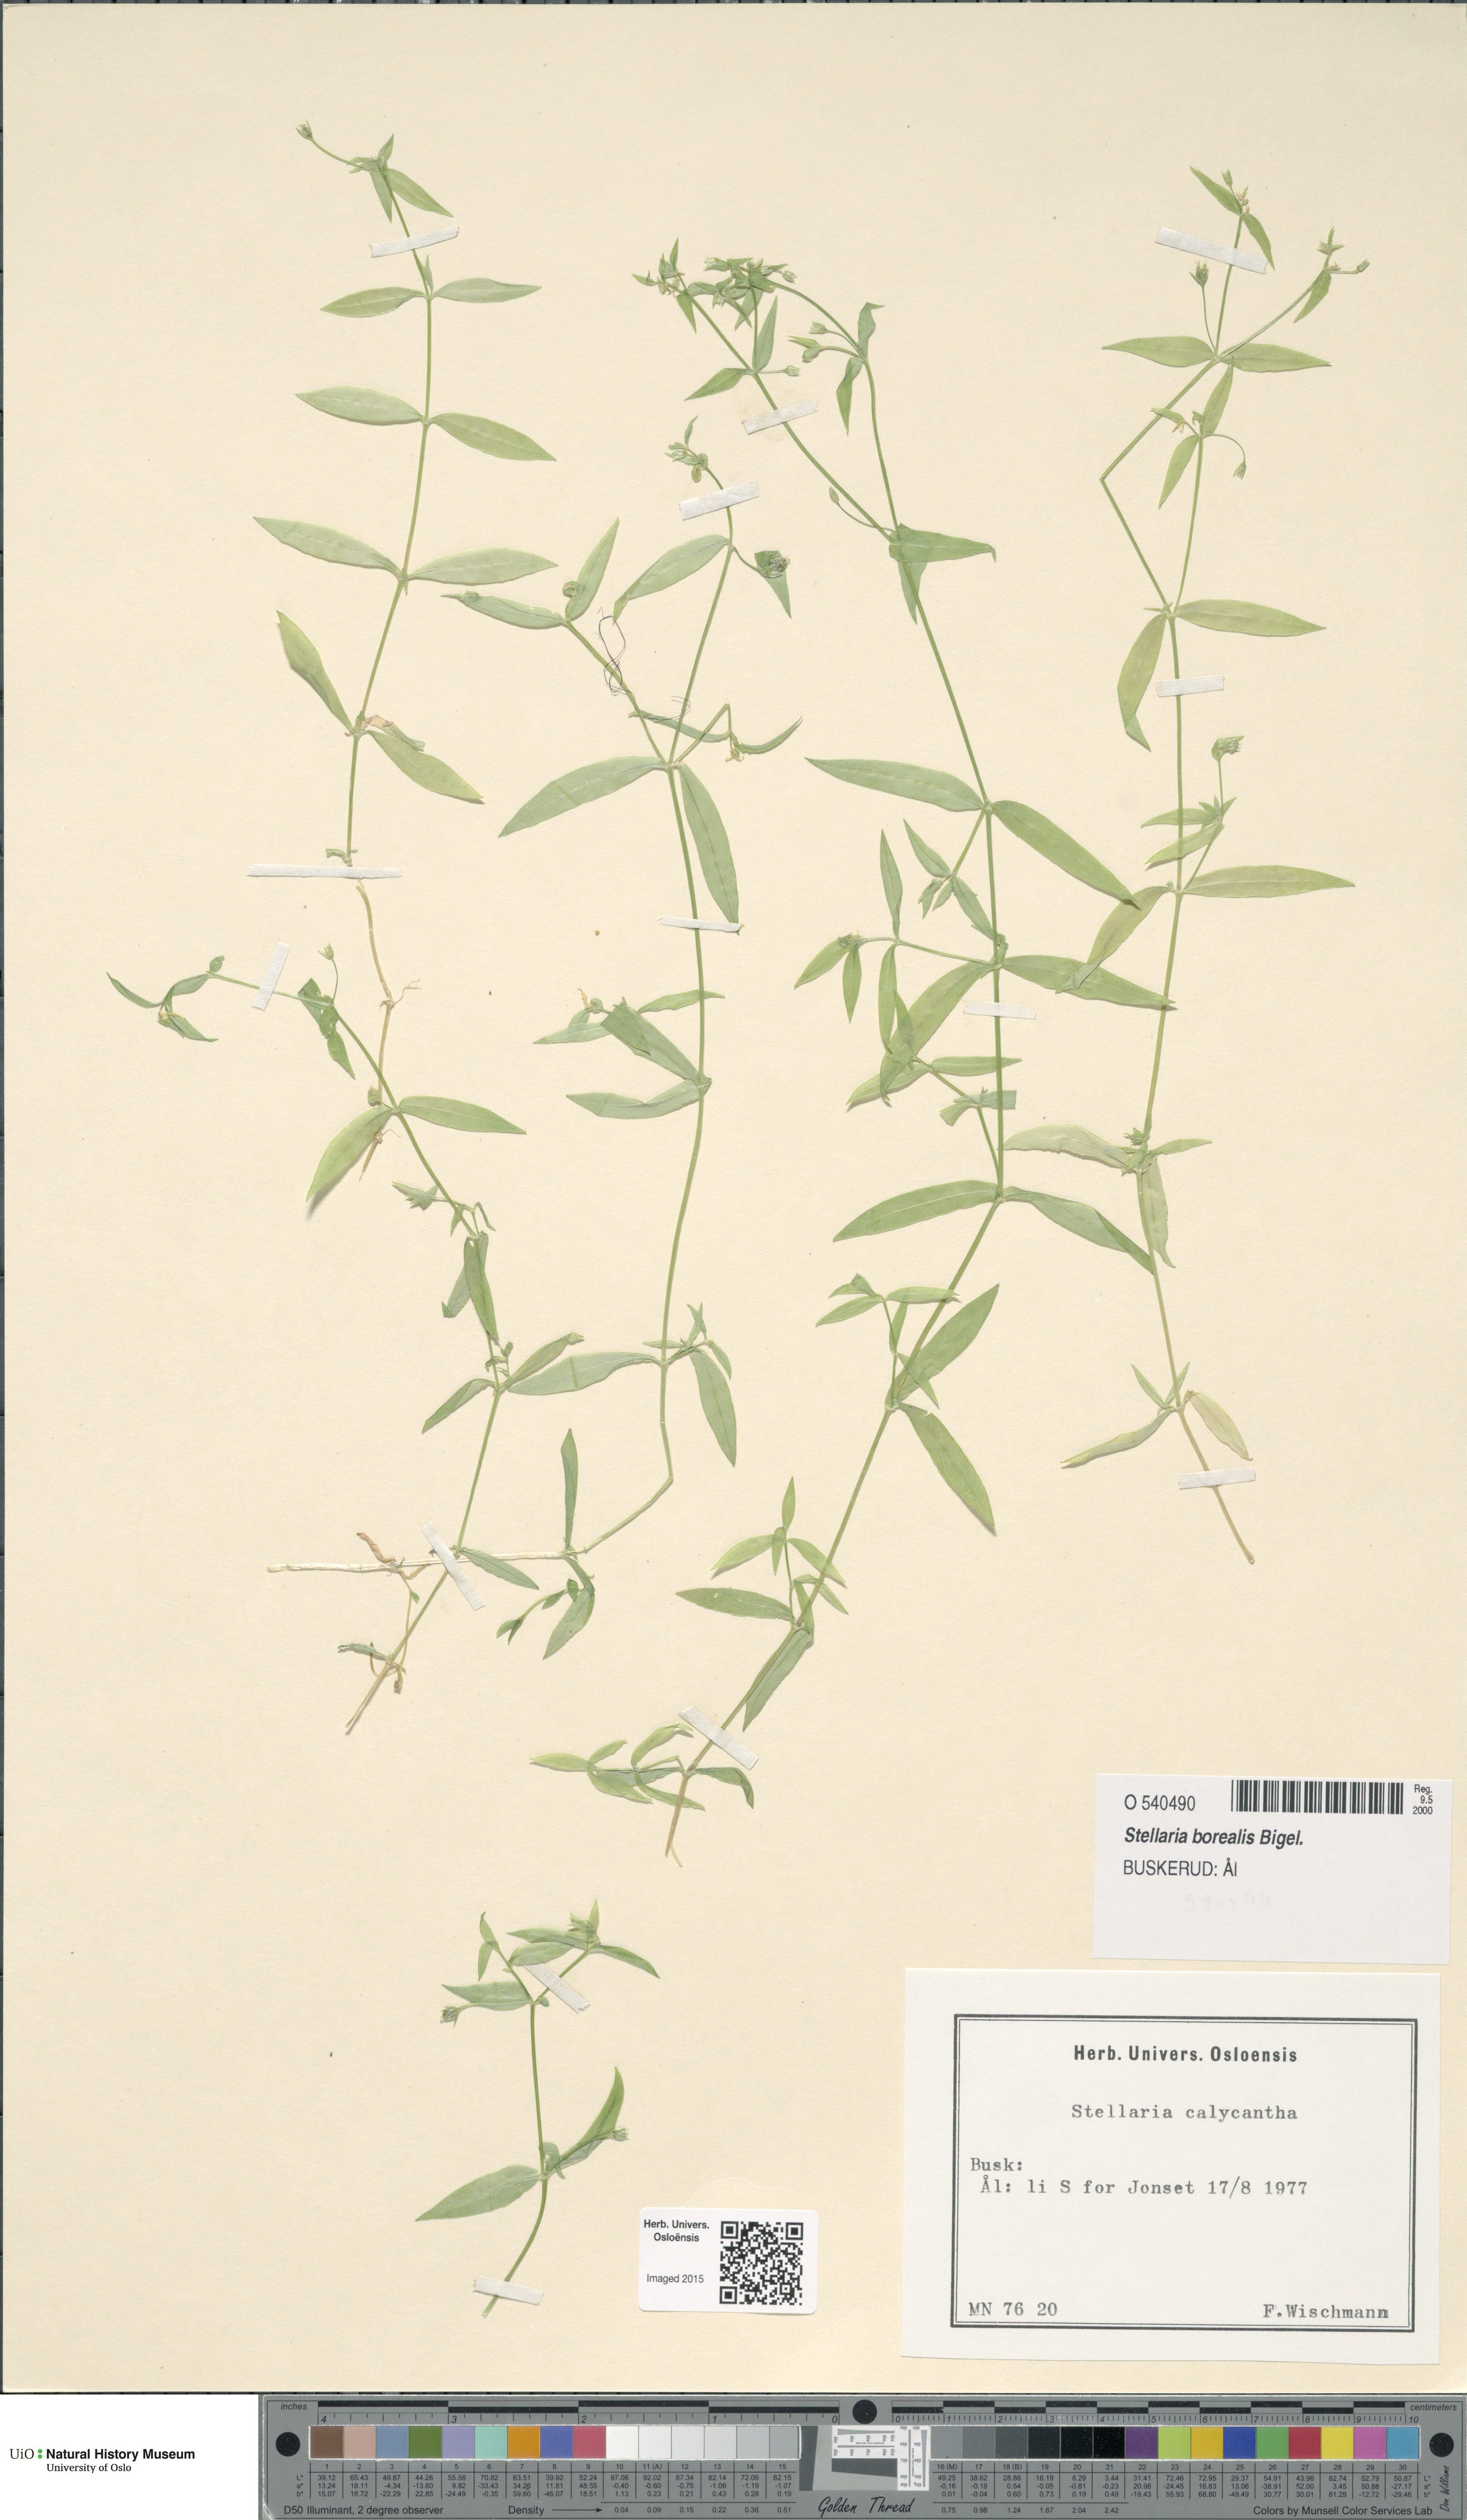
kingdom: Plantae
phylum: Tracheophyta
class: Magnoliopsida
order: Caryophyllales
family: Caryophyllaceae
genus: Stellaria
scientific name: Stellaria borealis
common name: Boreal starwort
